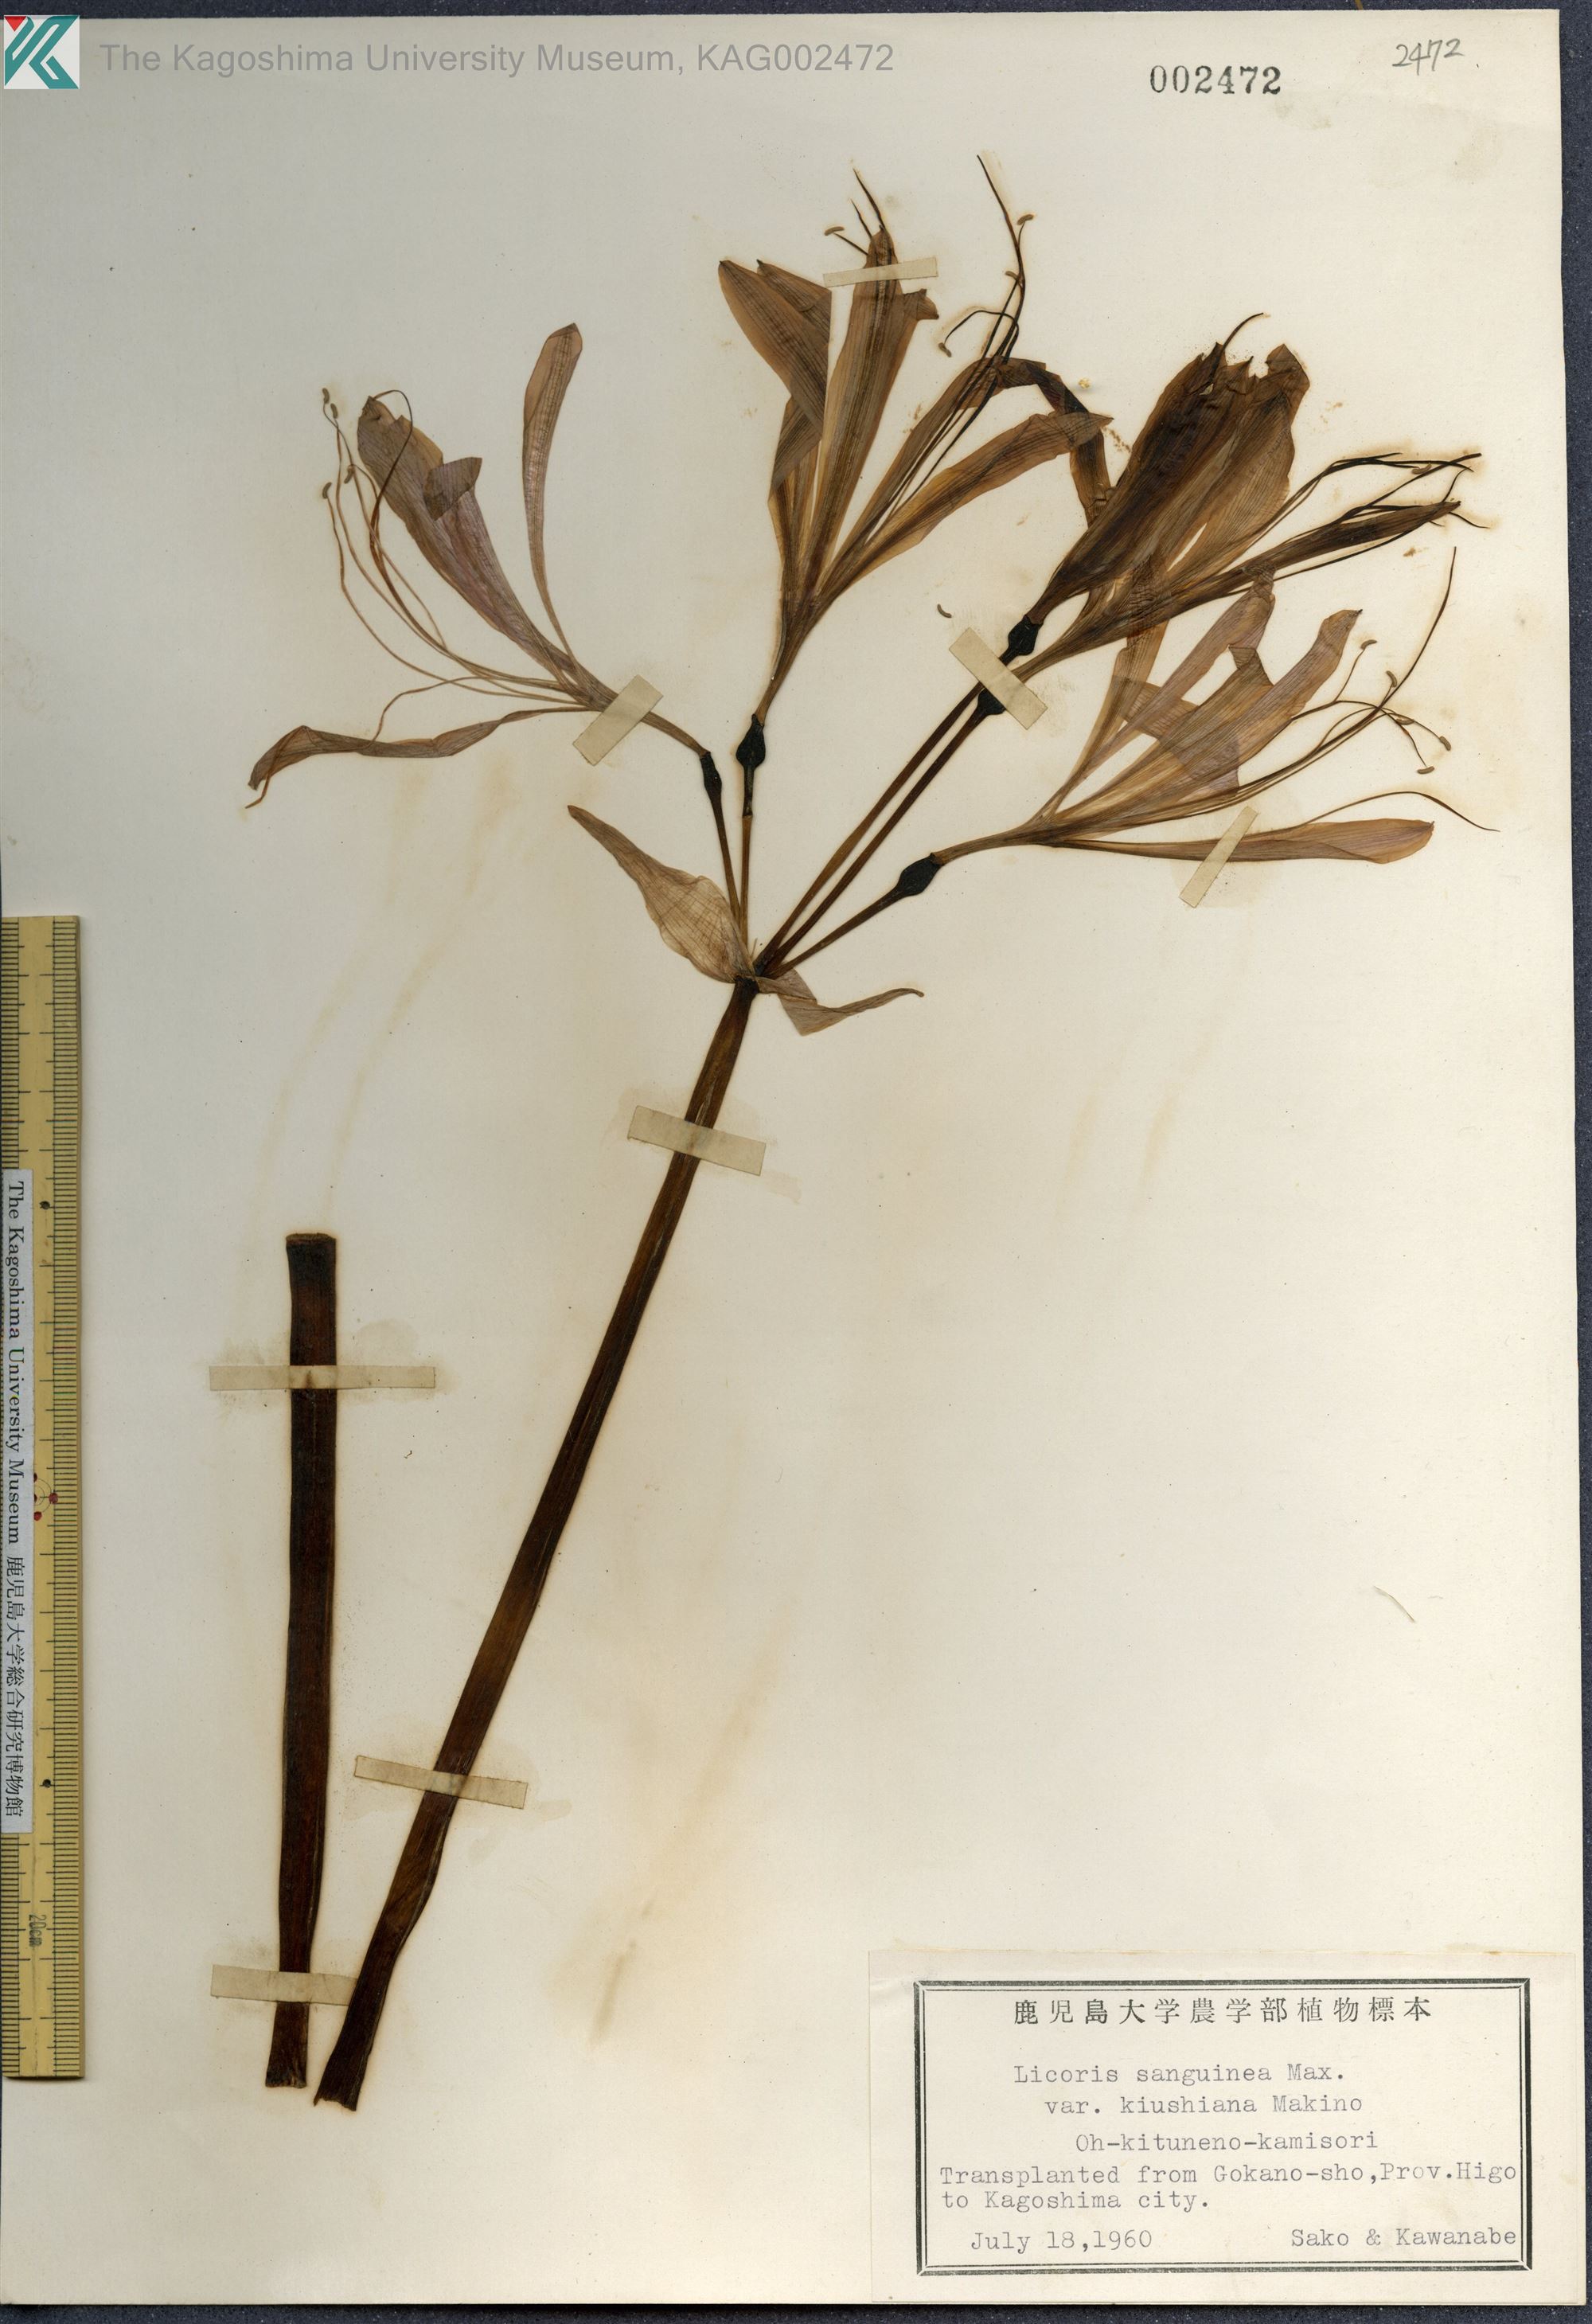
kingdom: Plantae
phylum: Tracheophyta
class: Liliopsida
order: Asparagales
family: Amaryllidaceae
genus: Lycoris
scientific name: Lycoris sanguinea
